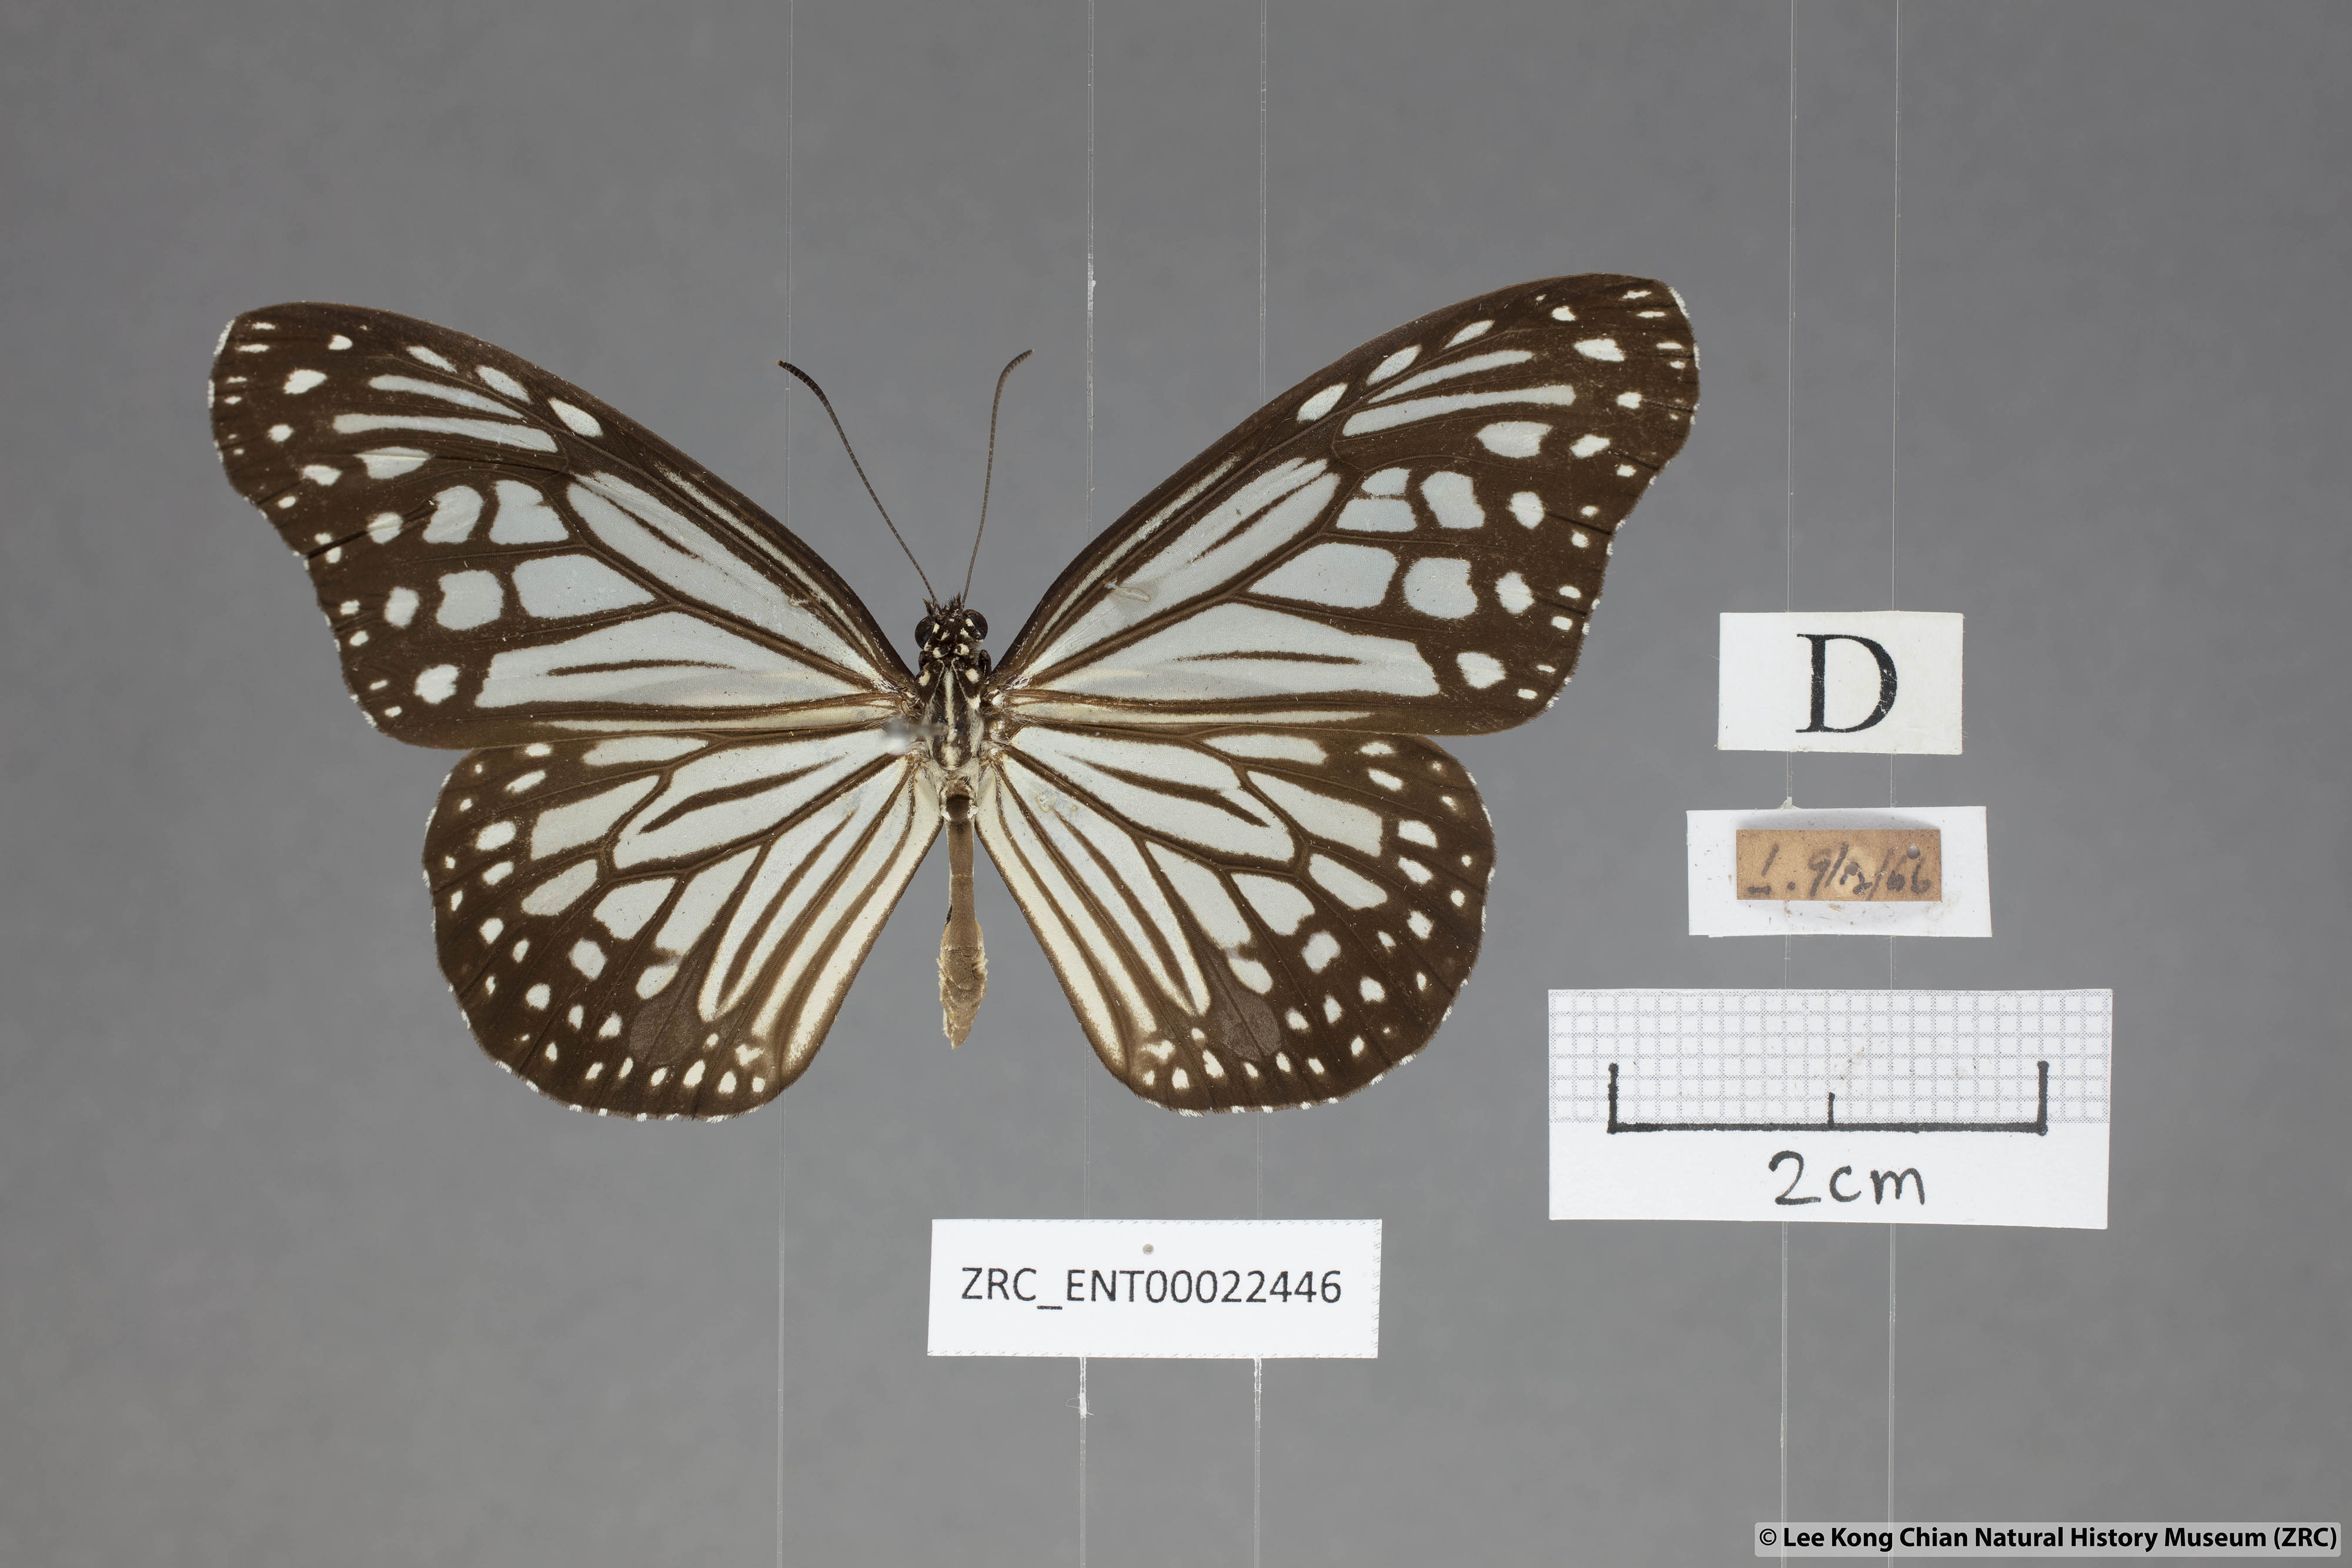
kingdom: Animalia
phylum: Arthropoda
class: Insecta
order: Lepidoptera
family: Nymphalidae
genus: Parantica
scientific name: Parantica aglea
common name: Glassy tiger
